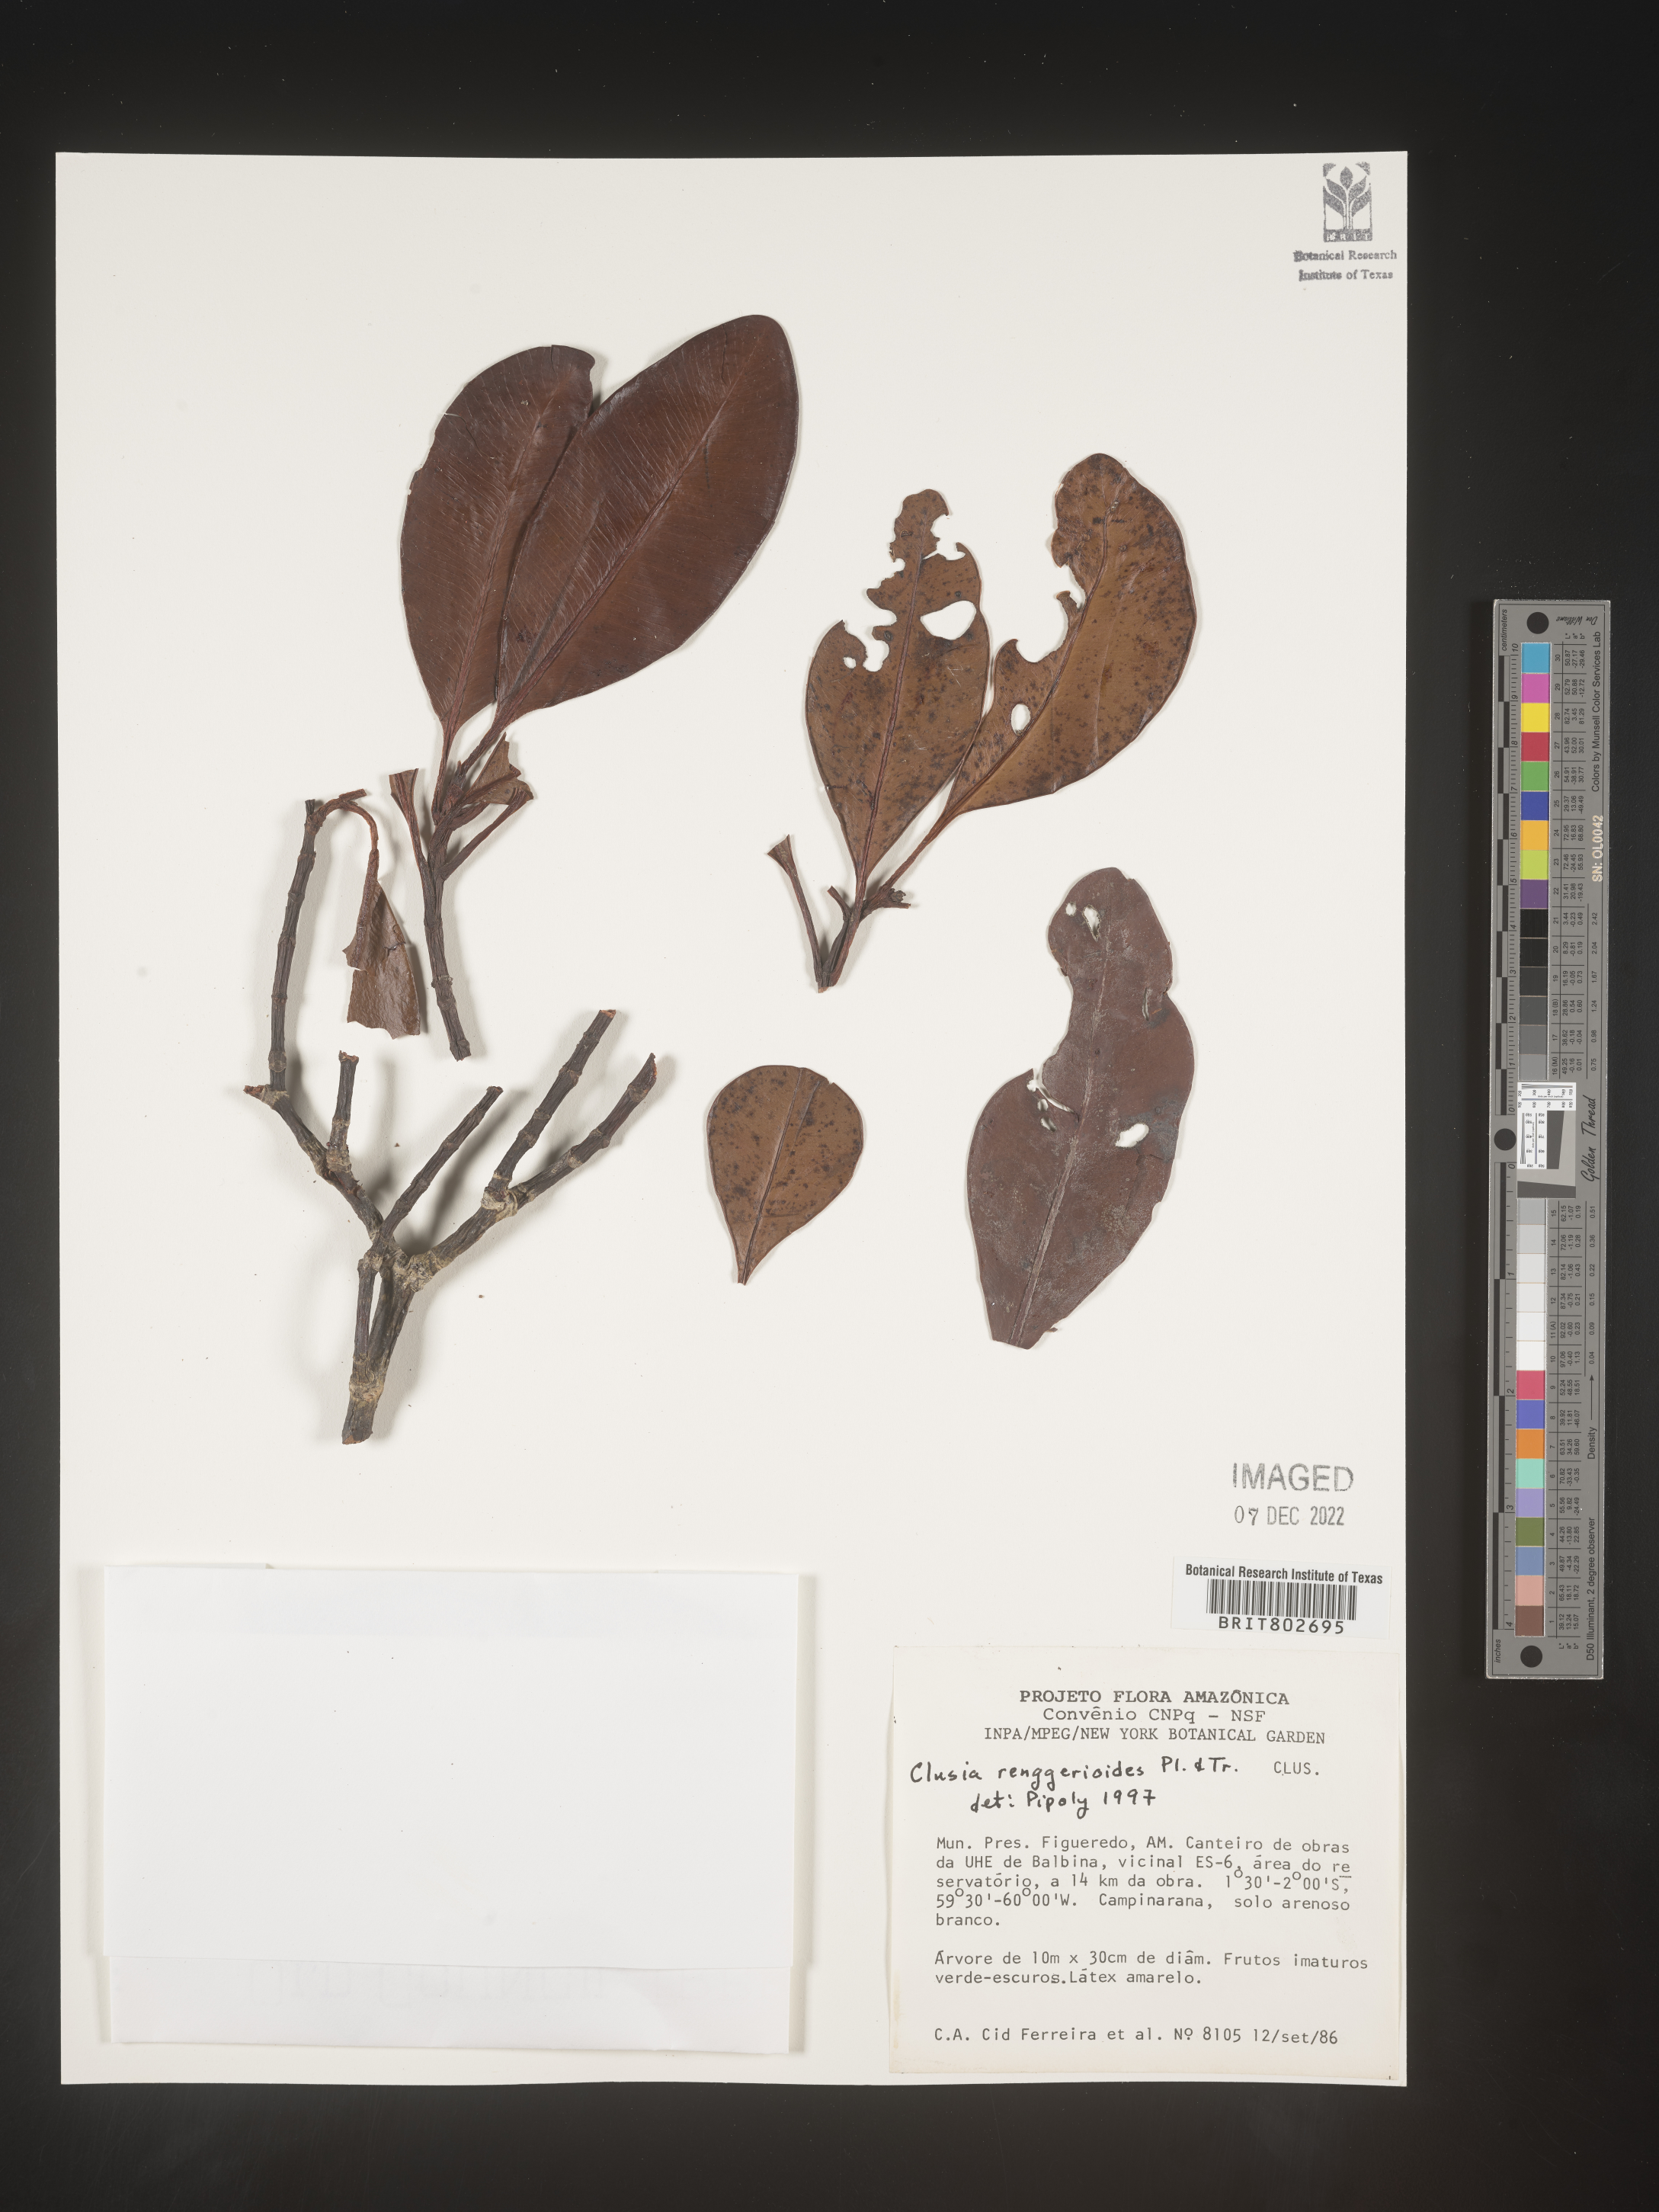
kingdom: Plantae
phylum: Tracheophyta
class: Magnoliopsida
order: Malpighiales
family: Clusiaceae
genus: Clusia
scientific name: Clusia renggerioides
